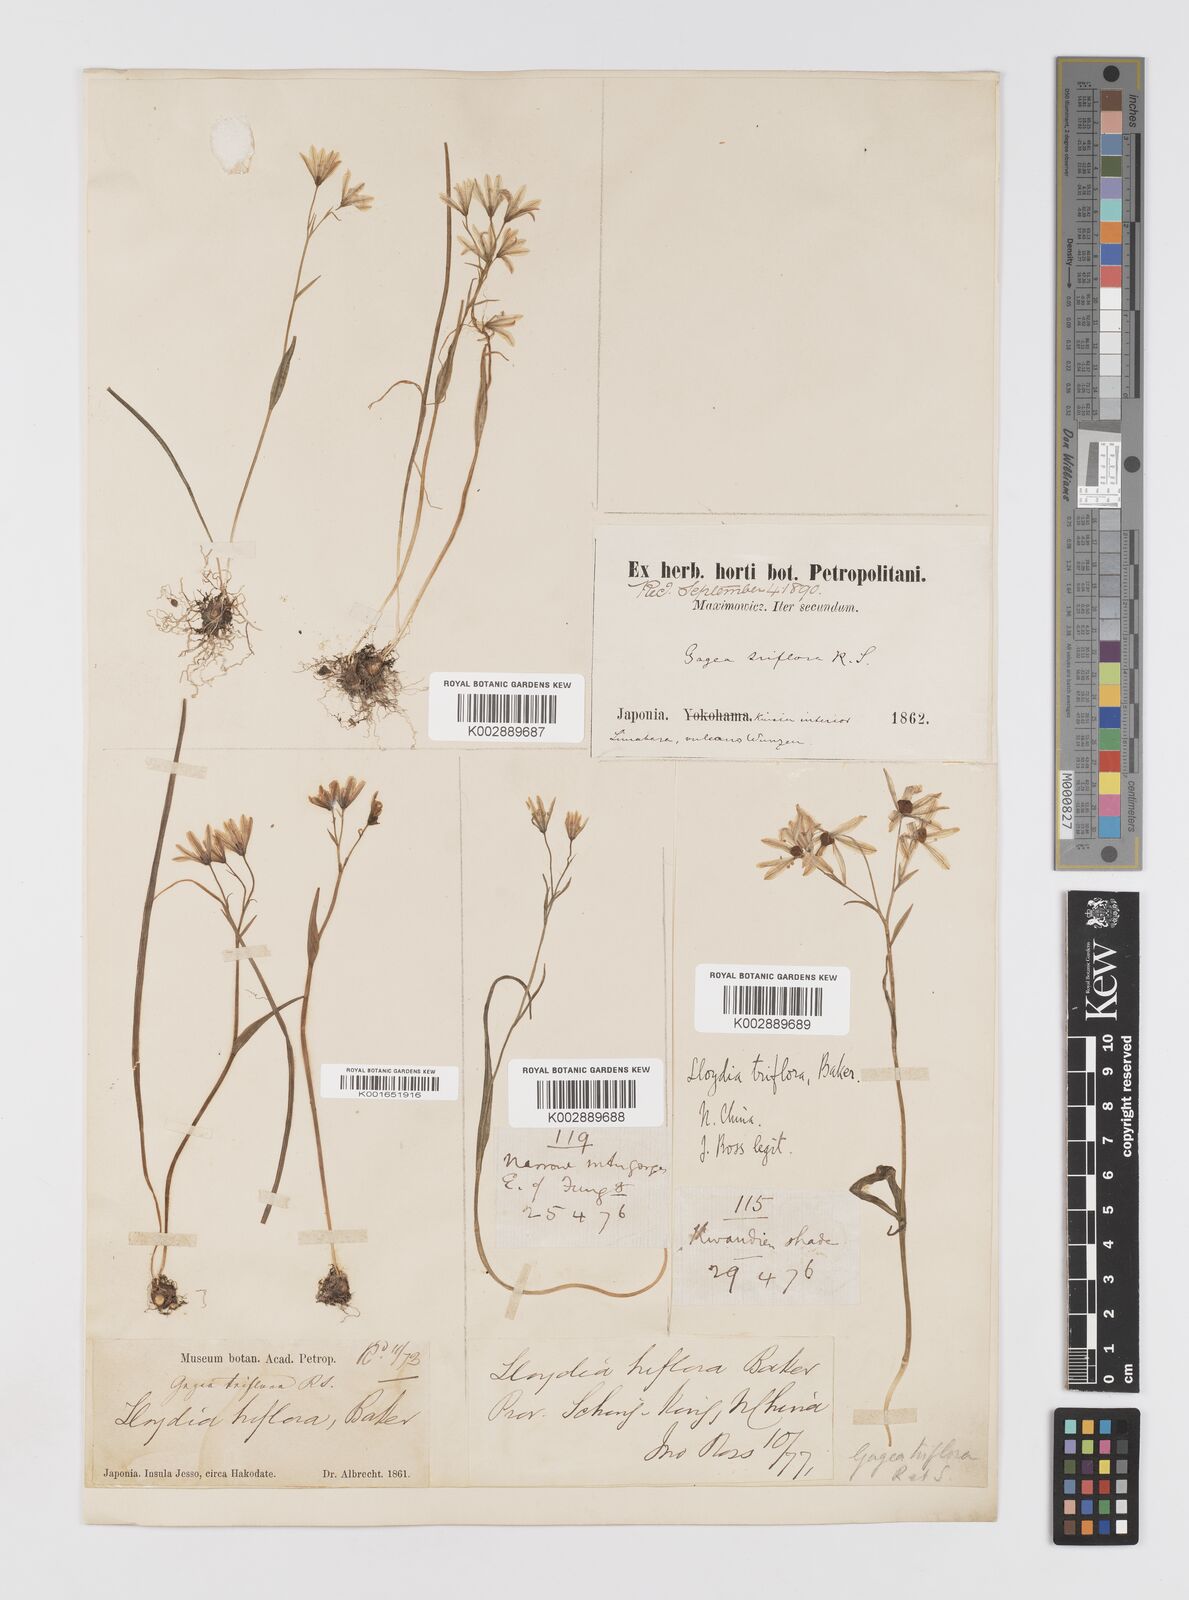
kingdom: Plantae
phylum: Tracheophyta
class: Liliopsida
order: Liliales
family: Liliaceae
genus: Gagea
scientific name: Gagea triflora
